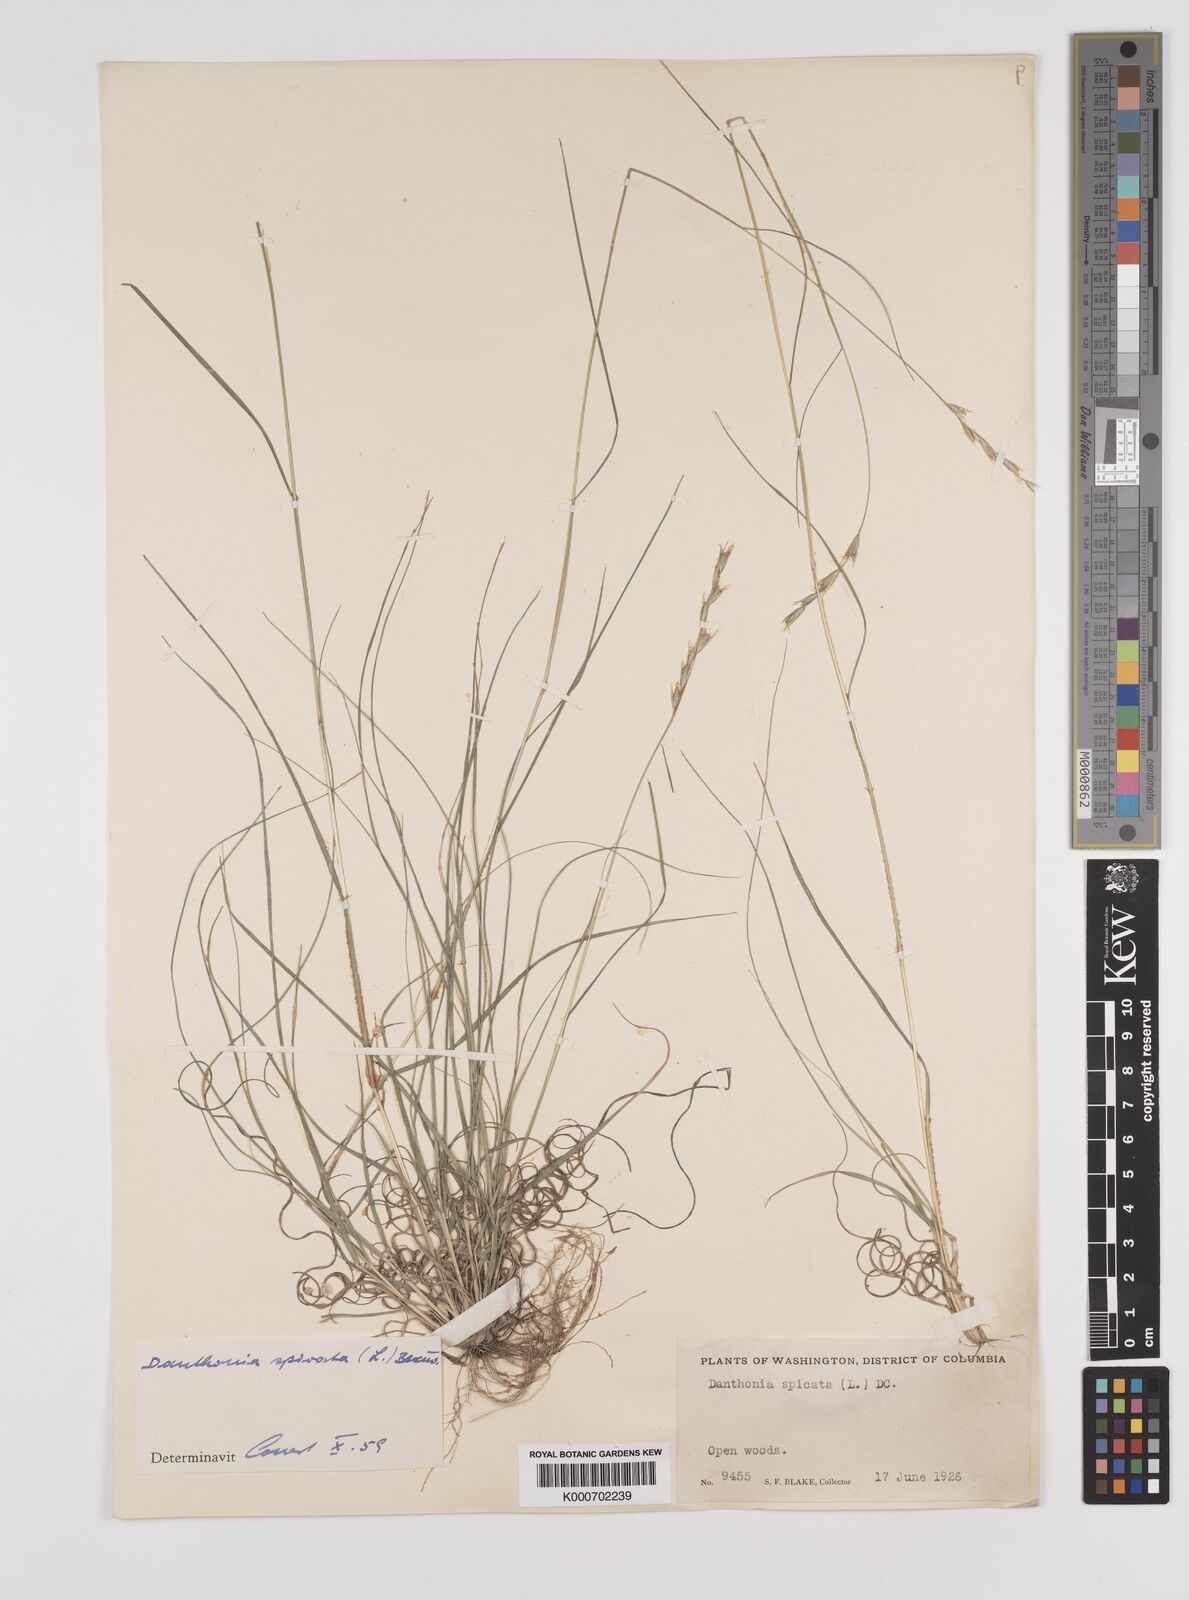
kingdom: Plantae
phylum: Tracheophyta
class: Liliopsida
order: Poales
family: Poaceae
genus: Danthonia
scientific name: Danthonia spicata
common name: Common wild oatgrass
